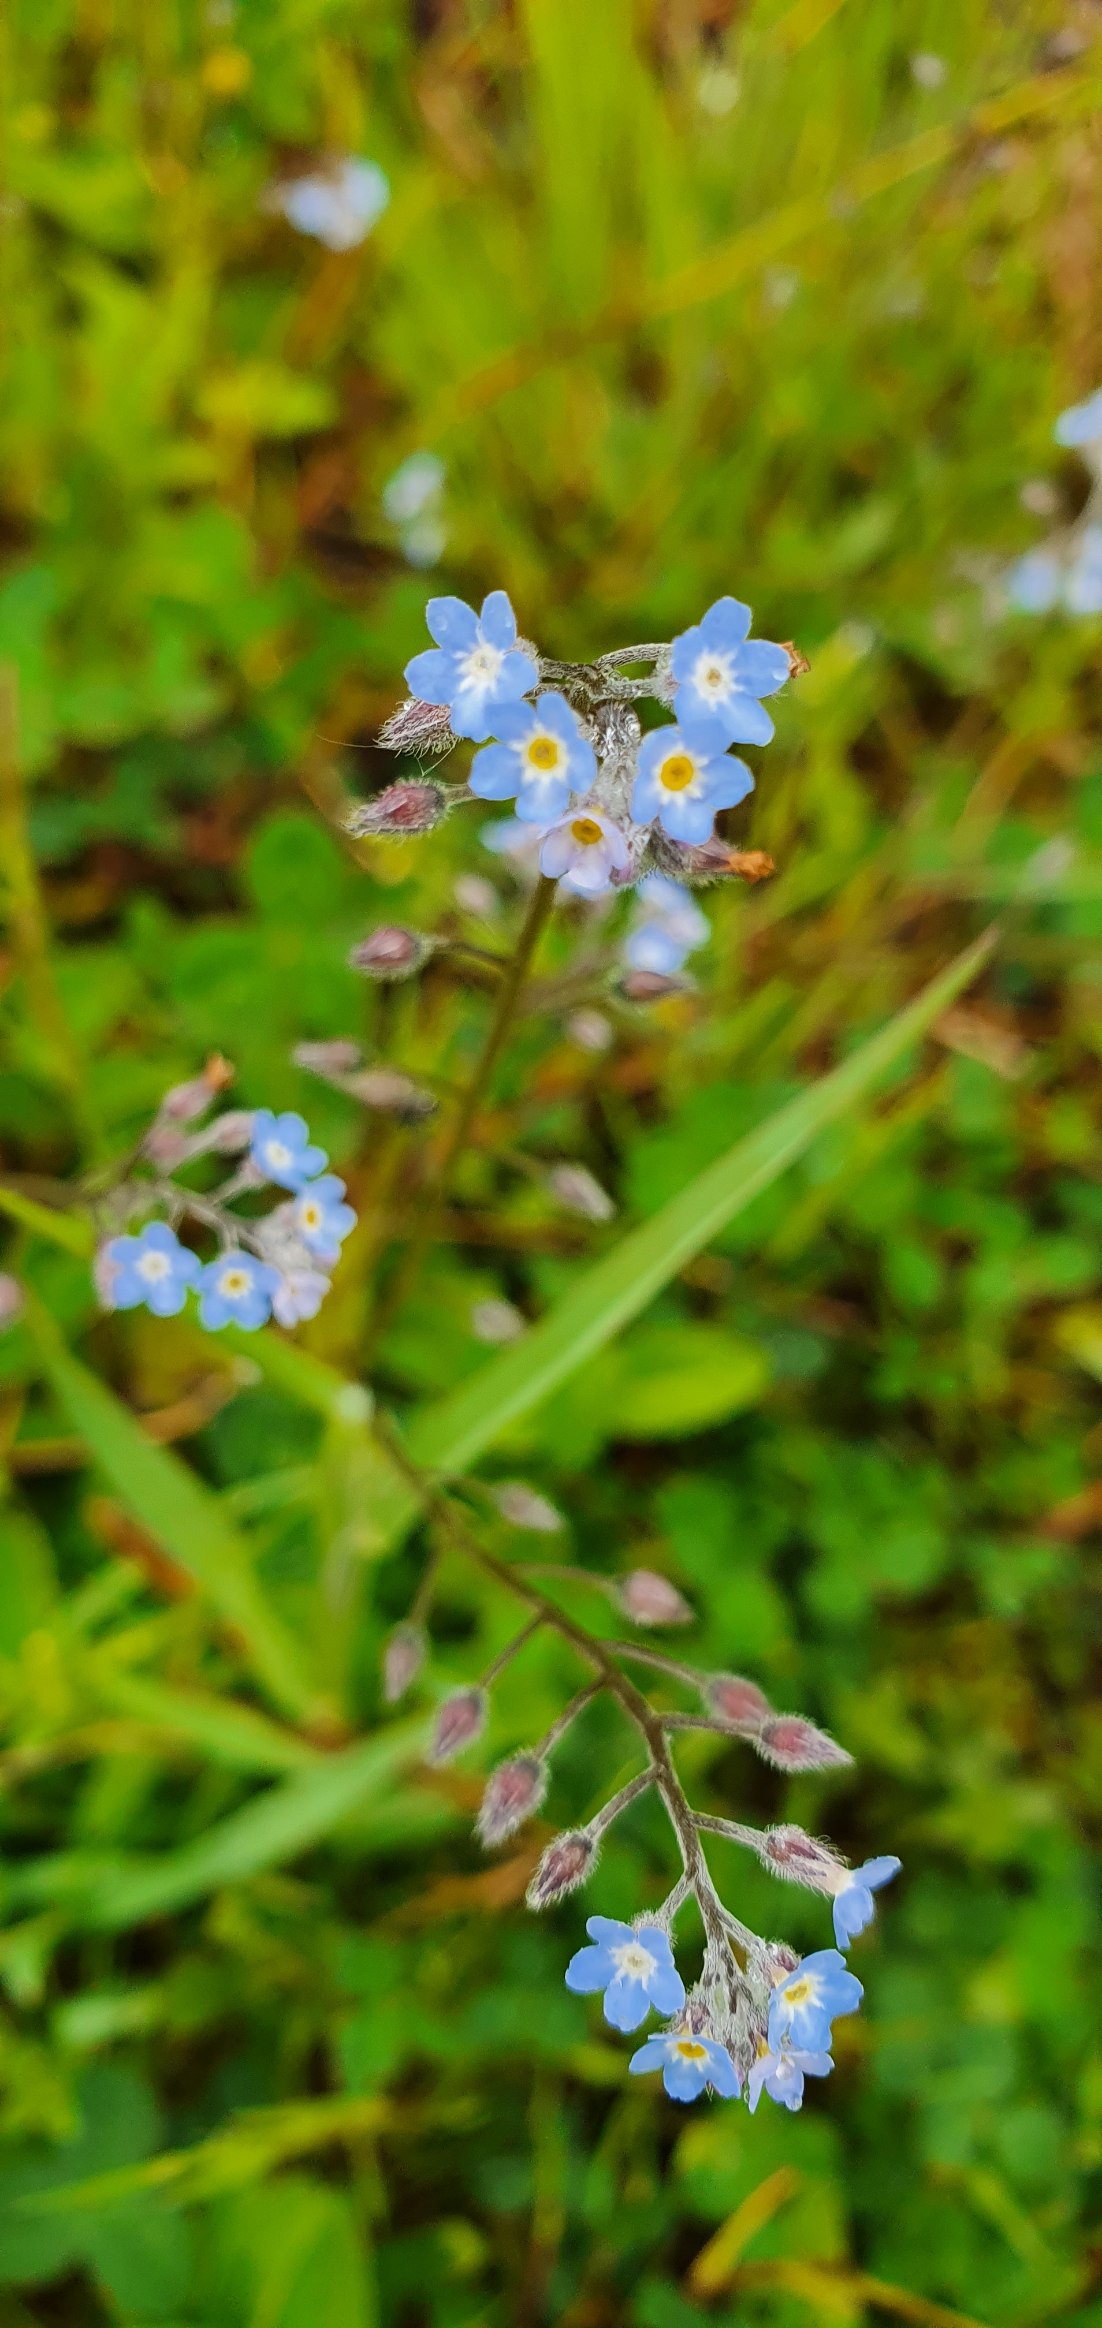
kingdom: Plantae
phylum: Tracheophyta
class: Magnoliopsida
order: Boraginales
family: Boraginaceae
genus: Myosotis
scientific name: Myosotis arvensis
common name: Mark-forglemmigej
